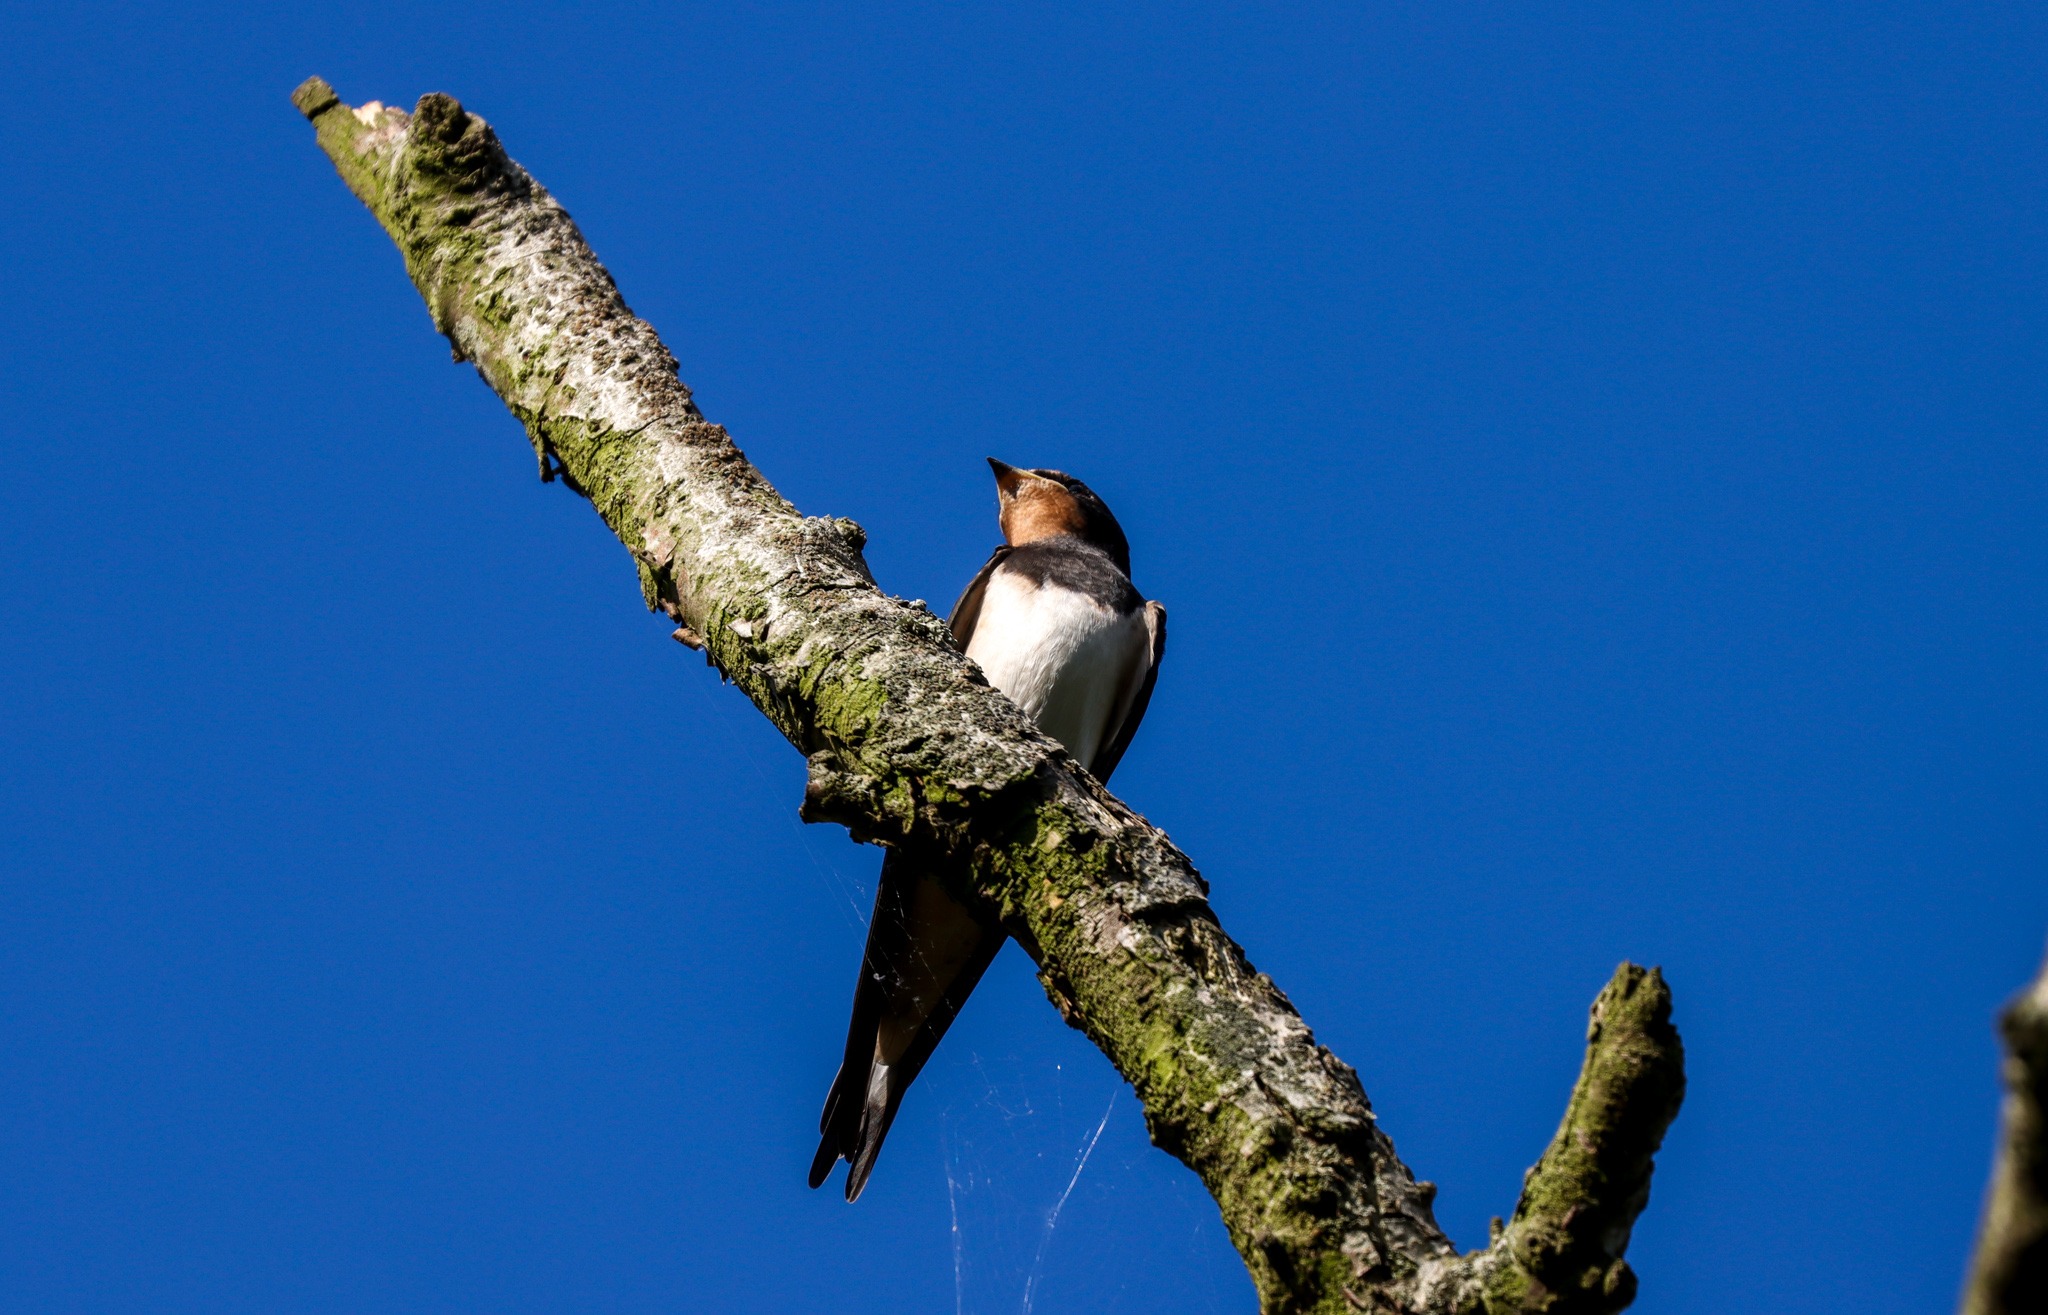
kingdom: Animalia
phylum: Chordata
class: Aves
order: Passeriformes
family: Hirundinidae
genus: Hirundo
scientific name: Hirundo rustica
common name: Landsvale
